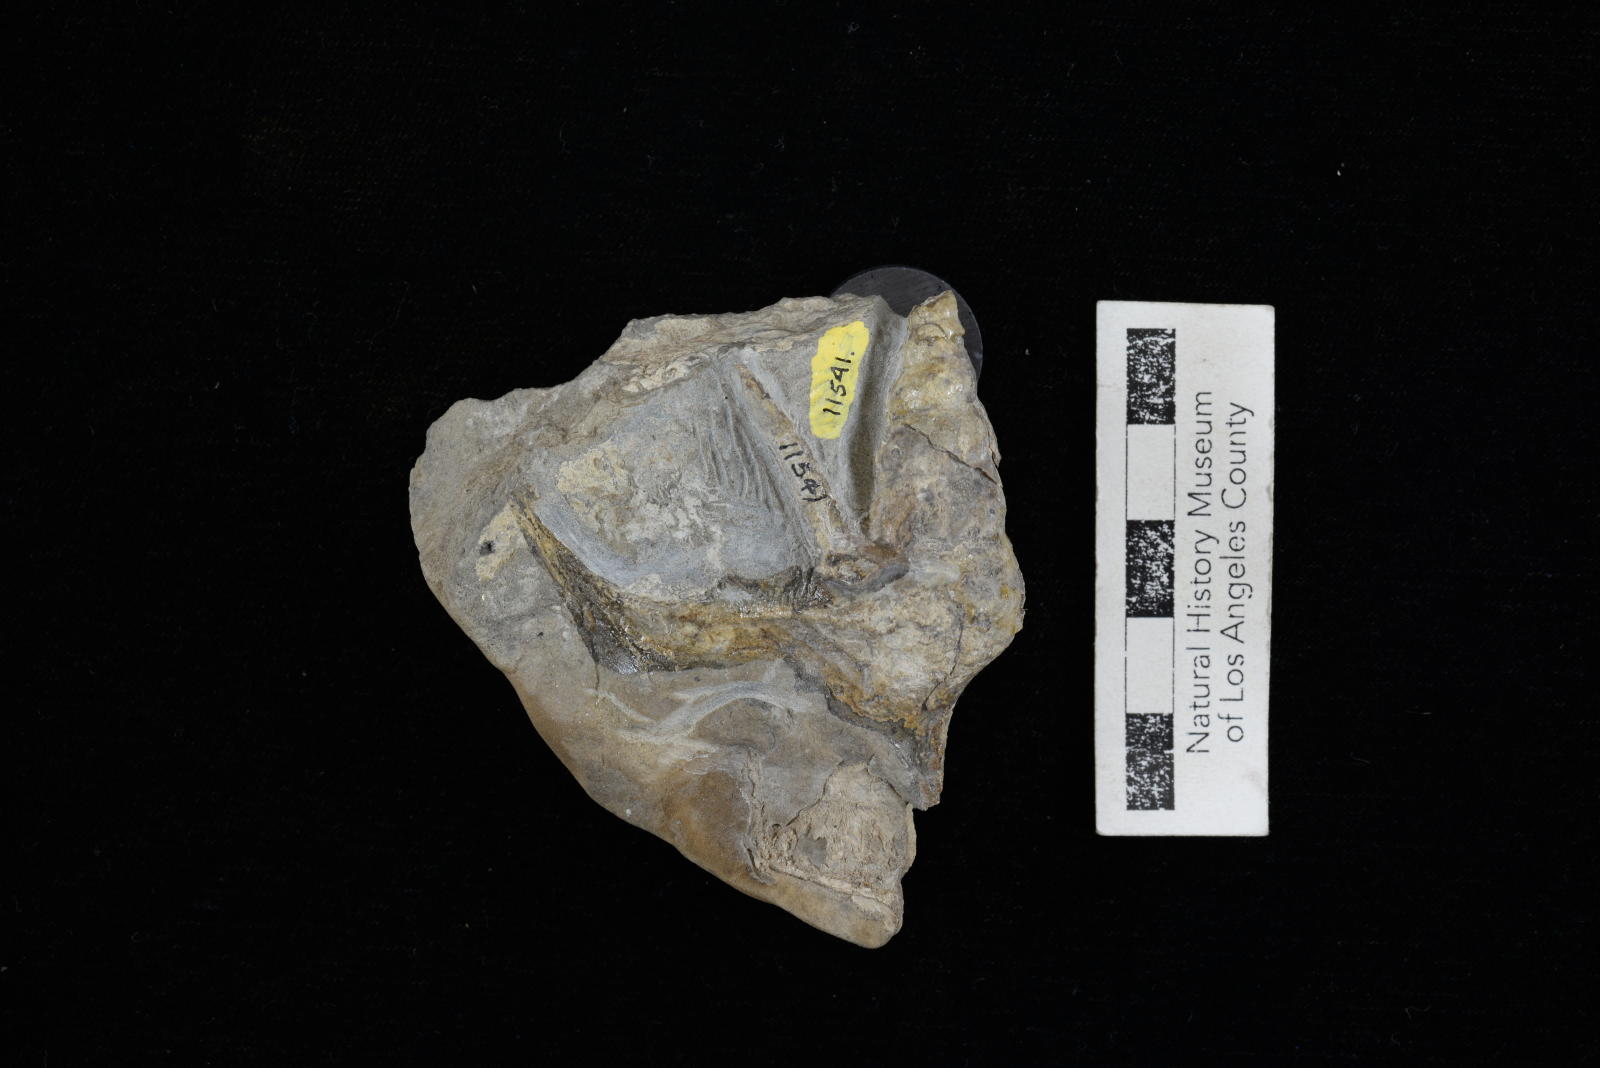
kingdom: Animalia
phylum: Mollusca
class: Gastropoda
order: Littorinimorpha
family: Aporrhaidae
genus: Helicaulax
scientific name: Helicaulax Anchura tricosa
